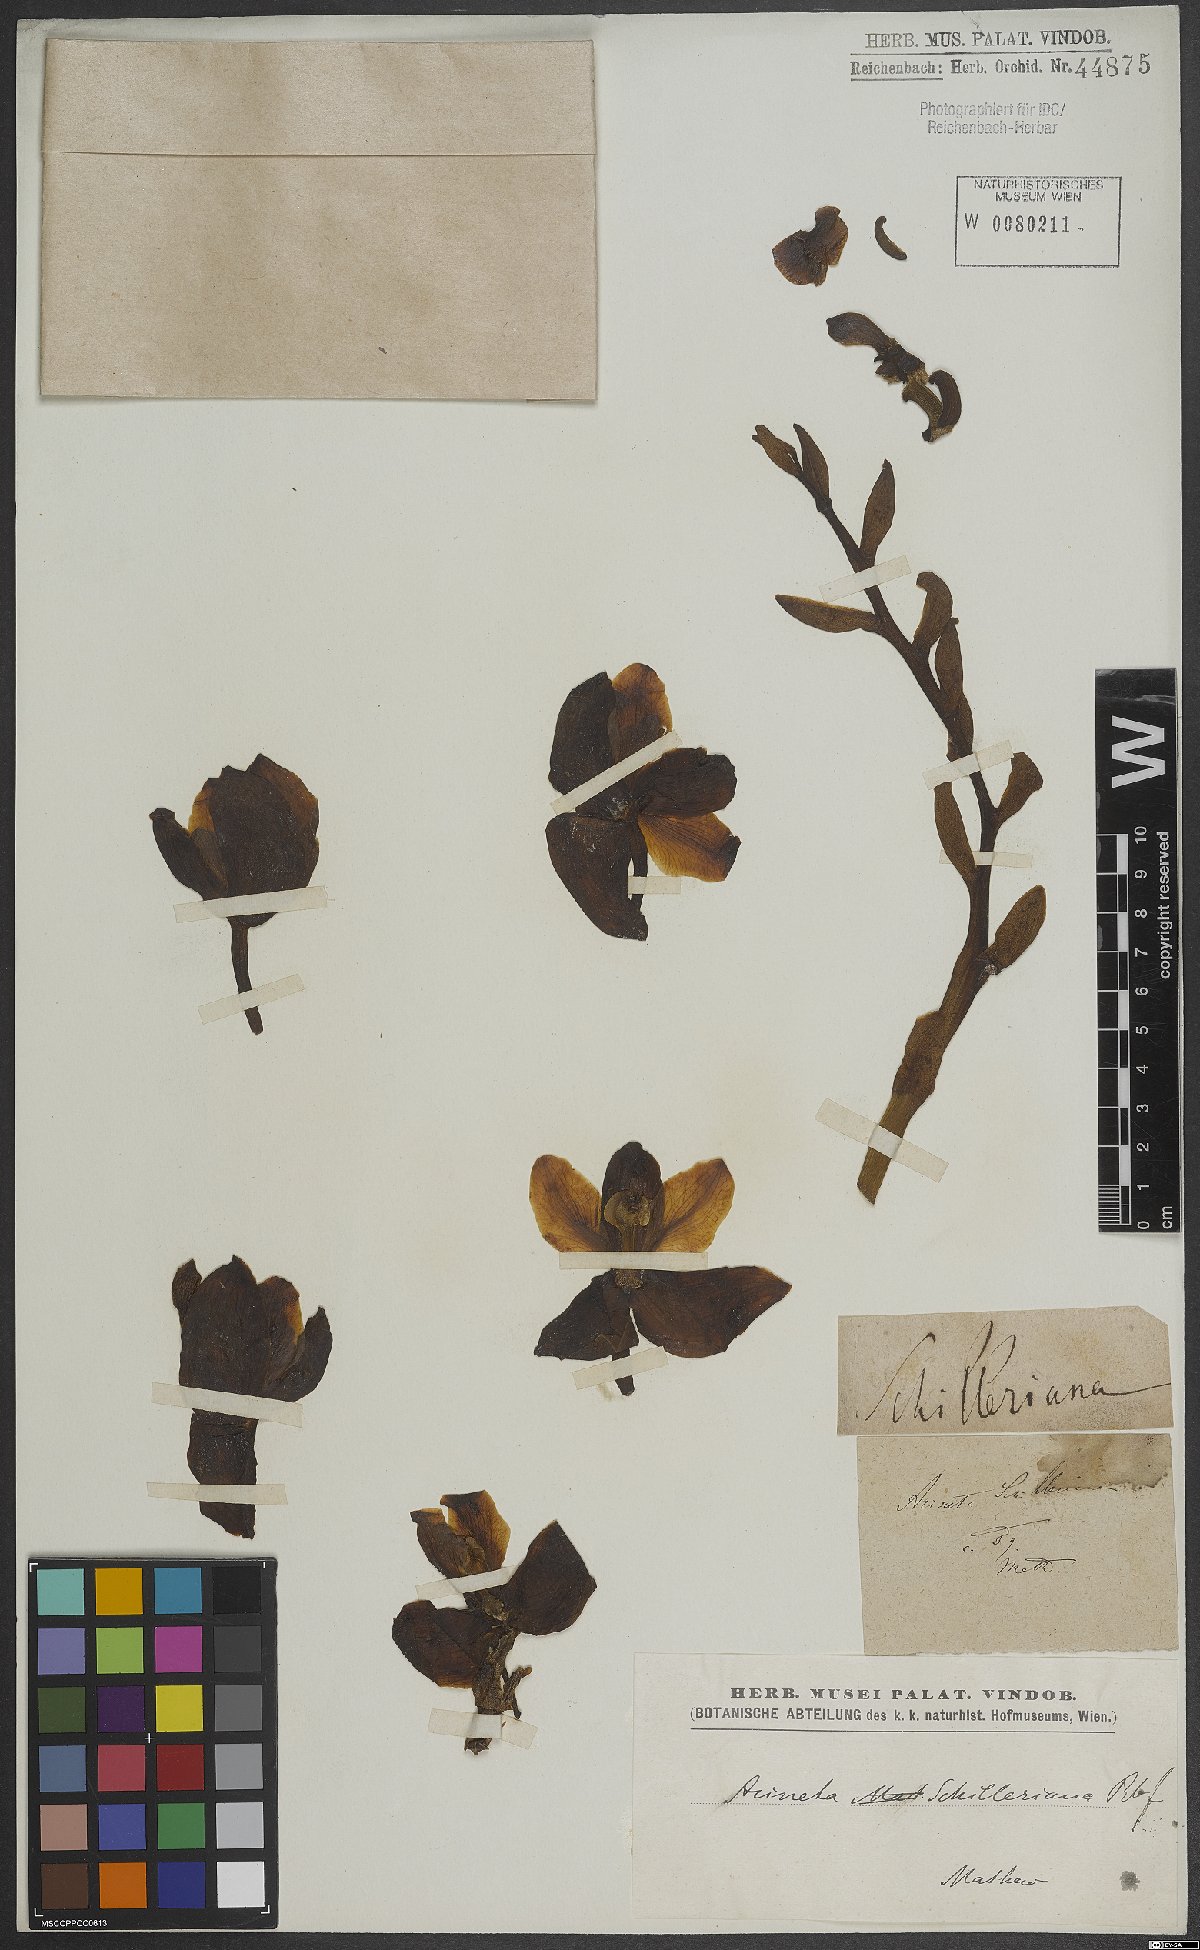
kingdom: Plantae
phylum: Tracheophyta
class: Liliopsida
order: Asparagales
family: Orchidaceae
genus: Acineta
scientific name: Acineta superba
